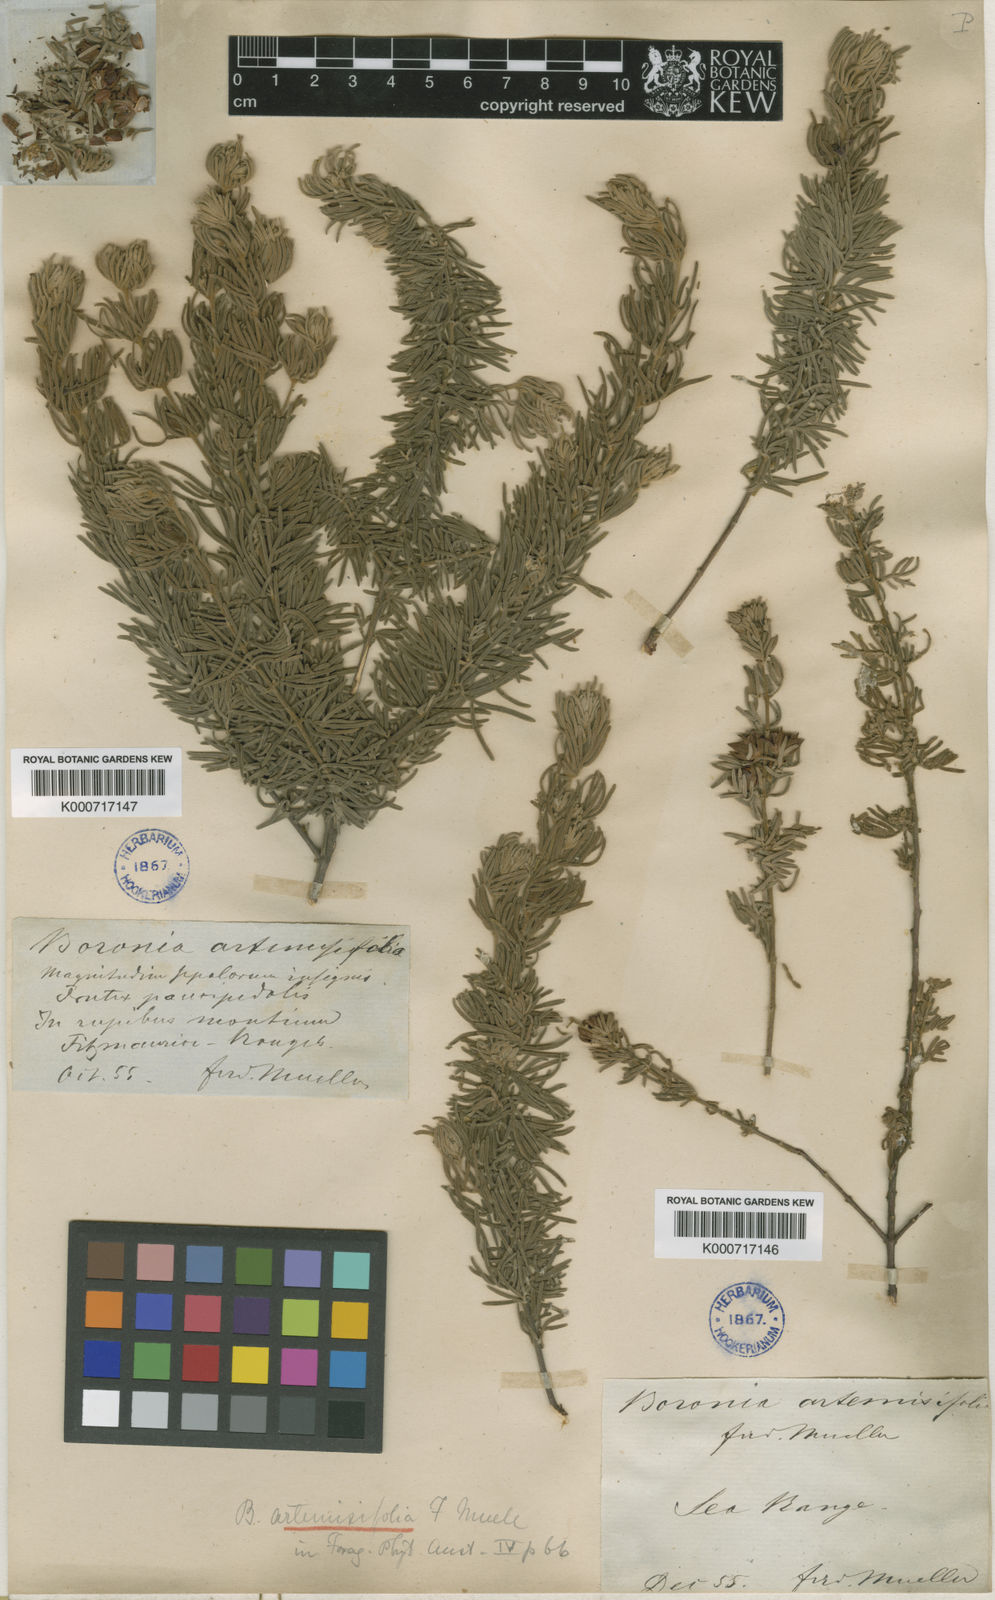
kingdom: Plantae
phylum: Tracheophyta
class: Magnoliopsida
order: Sapindales
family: Rutaceae
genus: Boronia
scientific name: Boronia lanuginosa
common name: Red boronia
